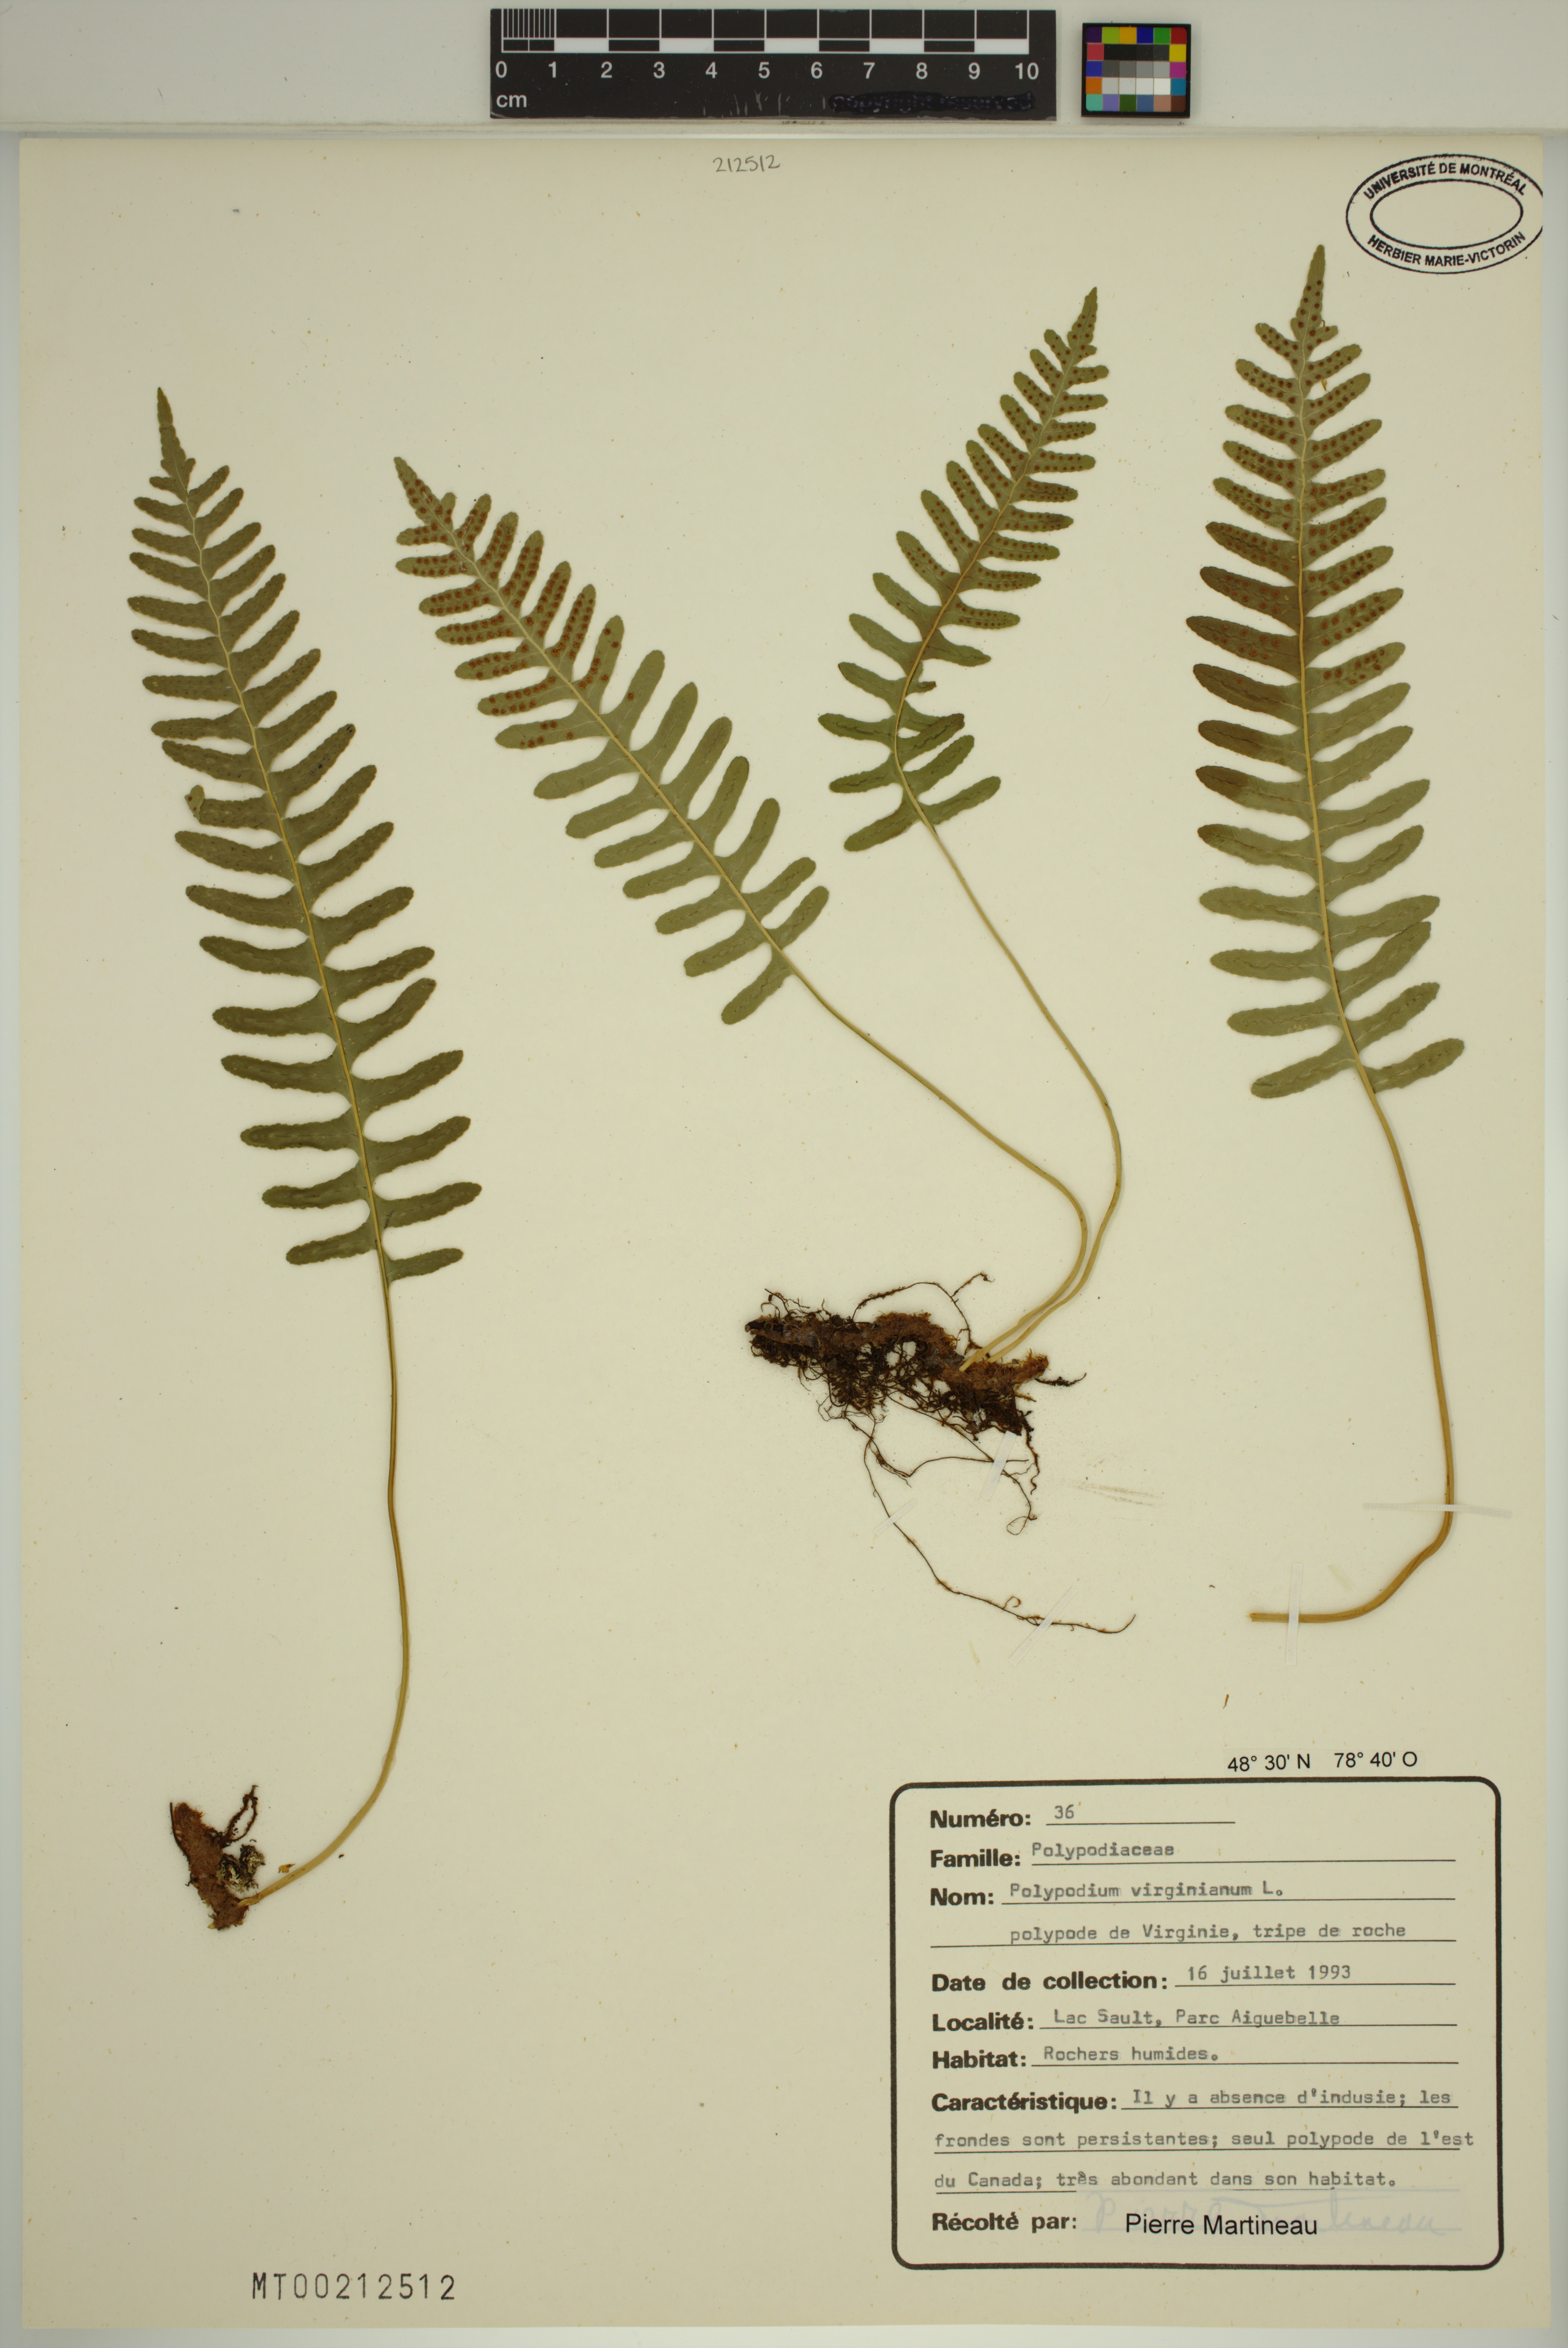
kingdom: Plantae
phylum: Tracheophyta
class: Polypodiopsida
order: Polypodiales
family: Polypodiaceae
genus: Polypodium
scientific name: Polypodium virginianum
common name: American wall fern
